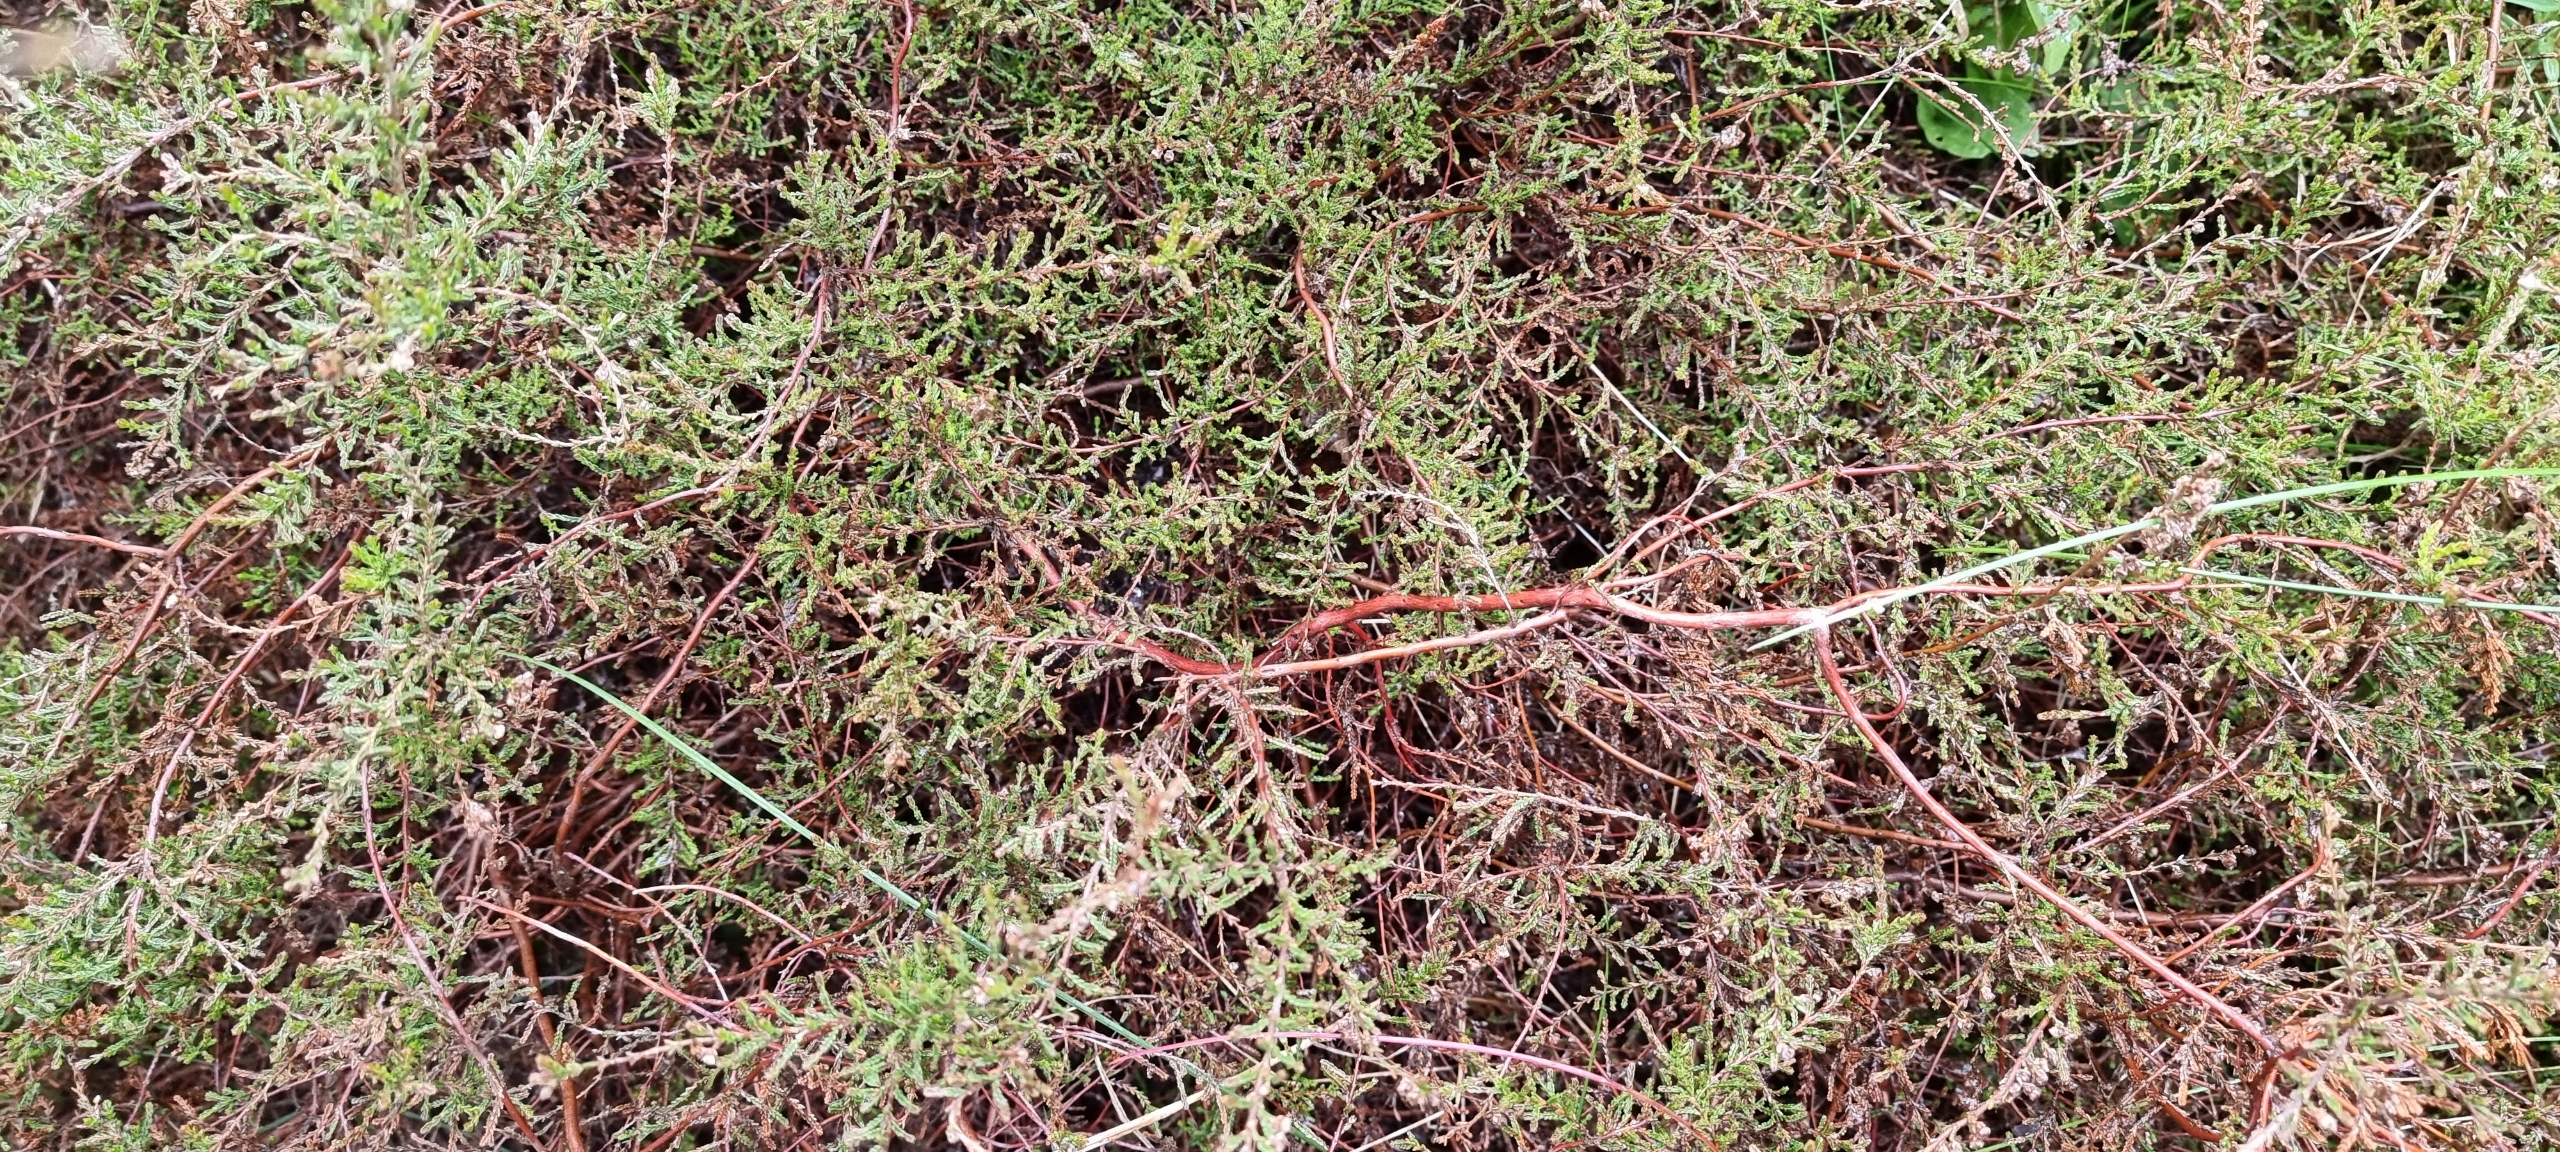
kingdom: Plantae
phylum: Tracheophyta
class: Magnoliopsida
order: Ericales
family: Ericaceae
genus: Calluna
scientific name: Calluna vulgaris
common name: Hedelyng
